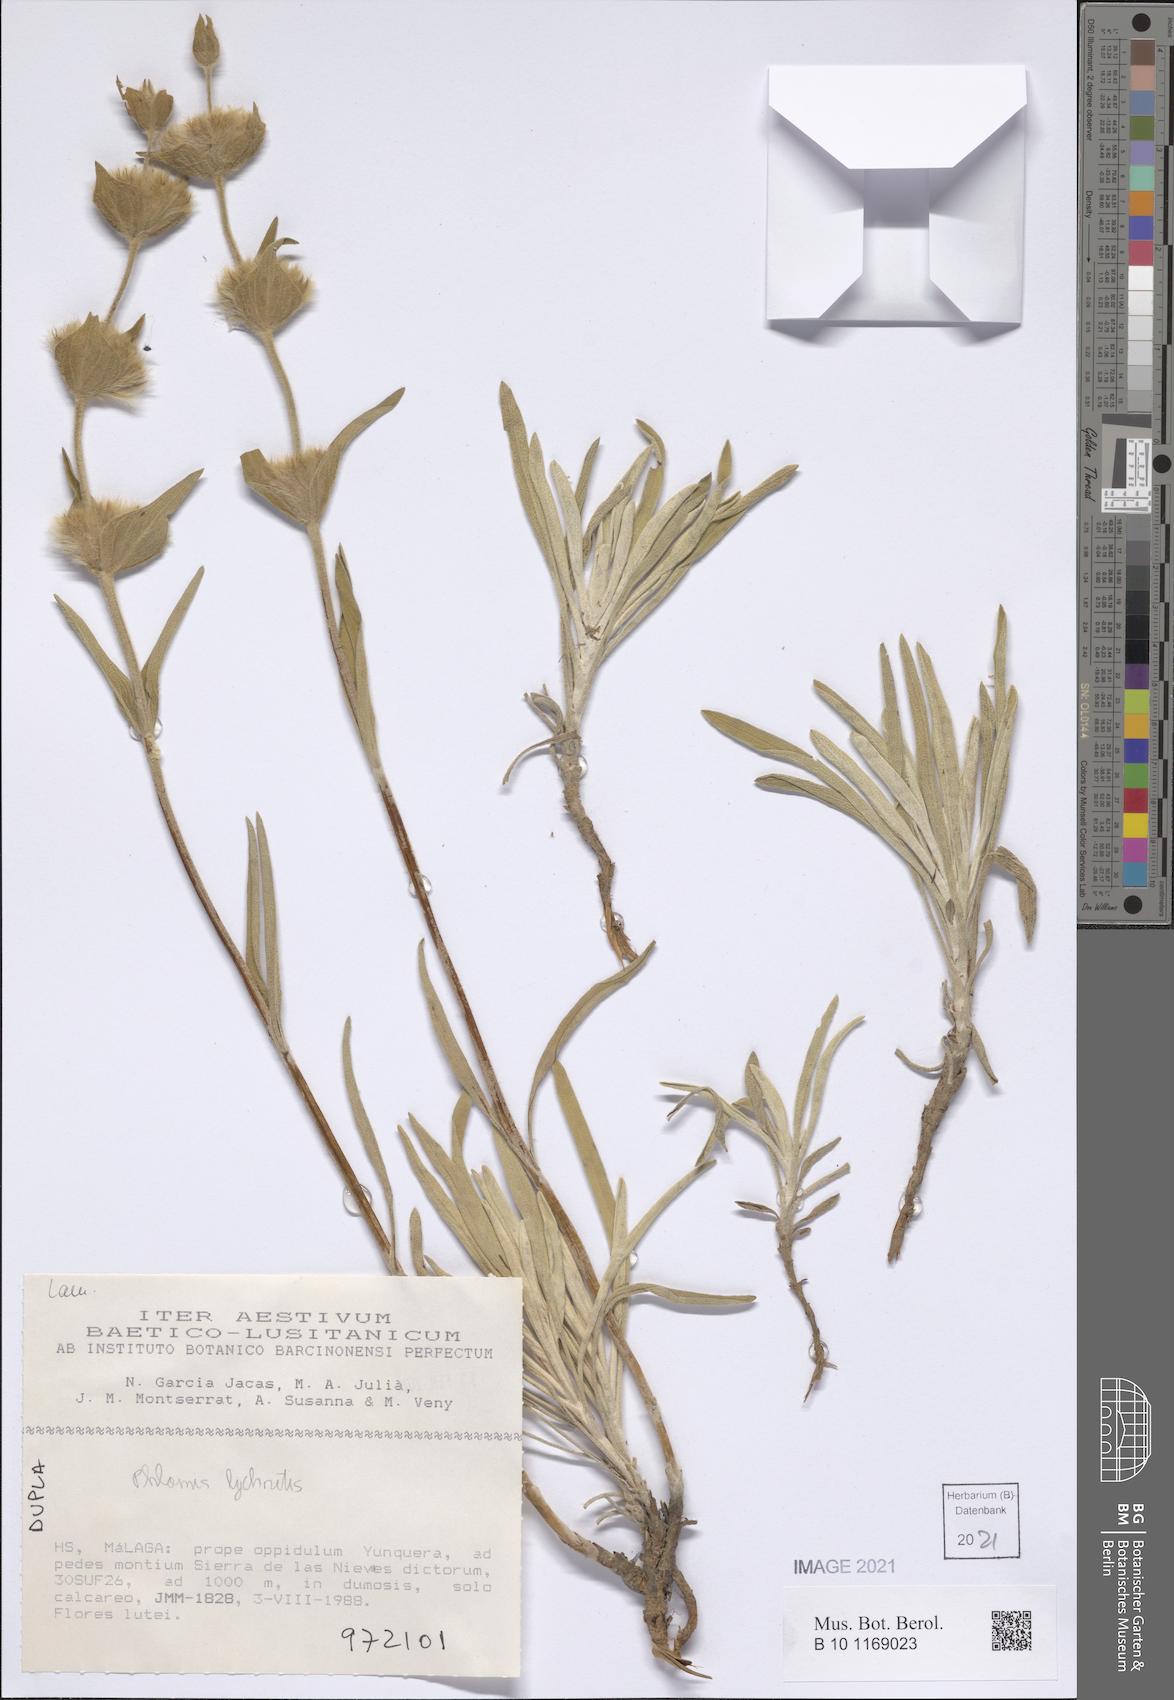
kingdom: Plantae
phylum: Tracheophyta
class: Magnoliopsida
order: Lamiales
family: Lamiaceae
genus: Phlomis
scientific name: Phlomis lychnitis
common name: Lampwickplant
